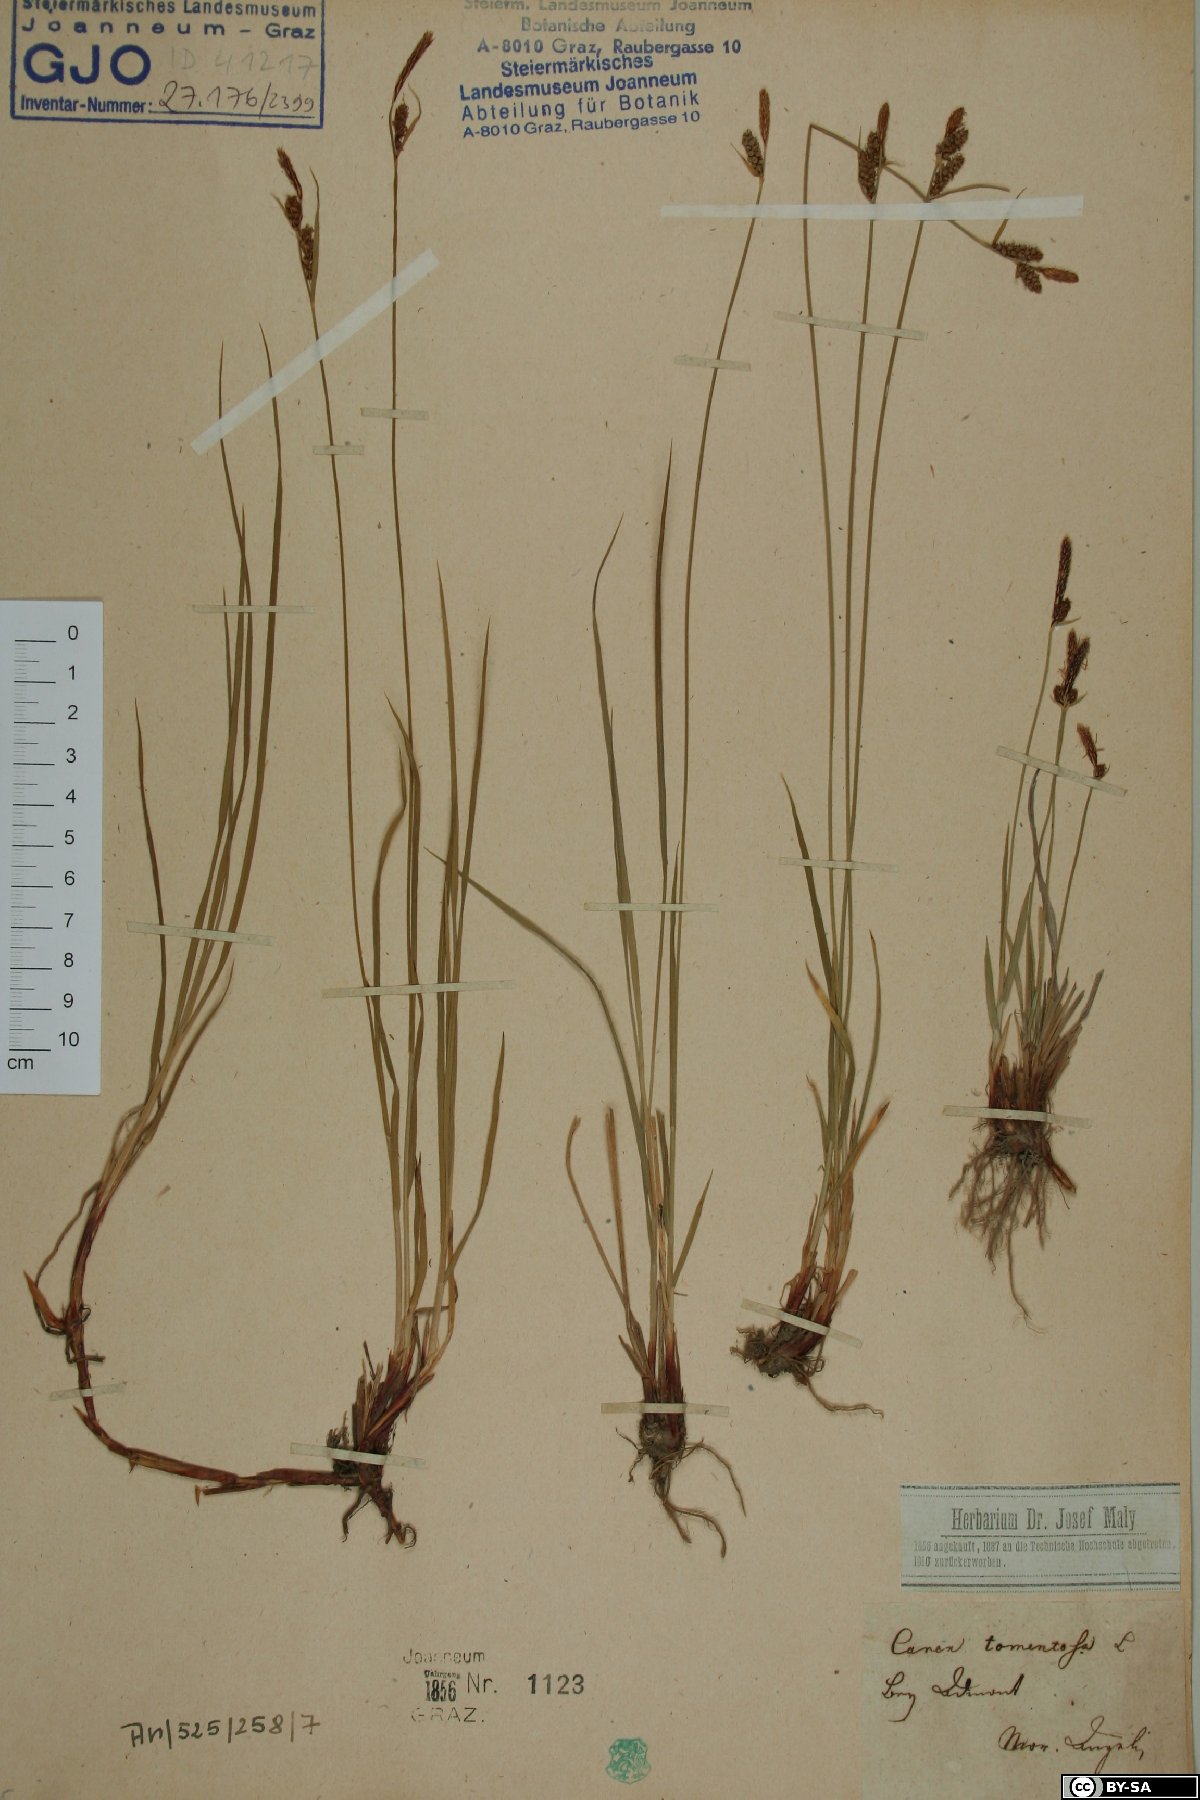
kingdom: Plantae
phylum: Tracheophyta
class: Liliopsida
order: Poales
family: Cyperaceae
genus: Carex
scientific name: Carex tomentosa
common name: Downy-fruited sedge
